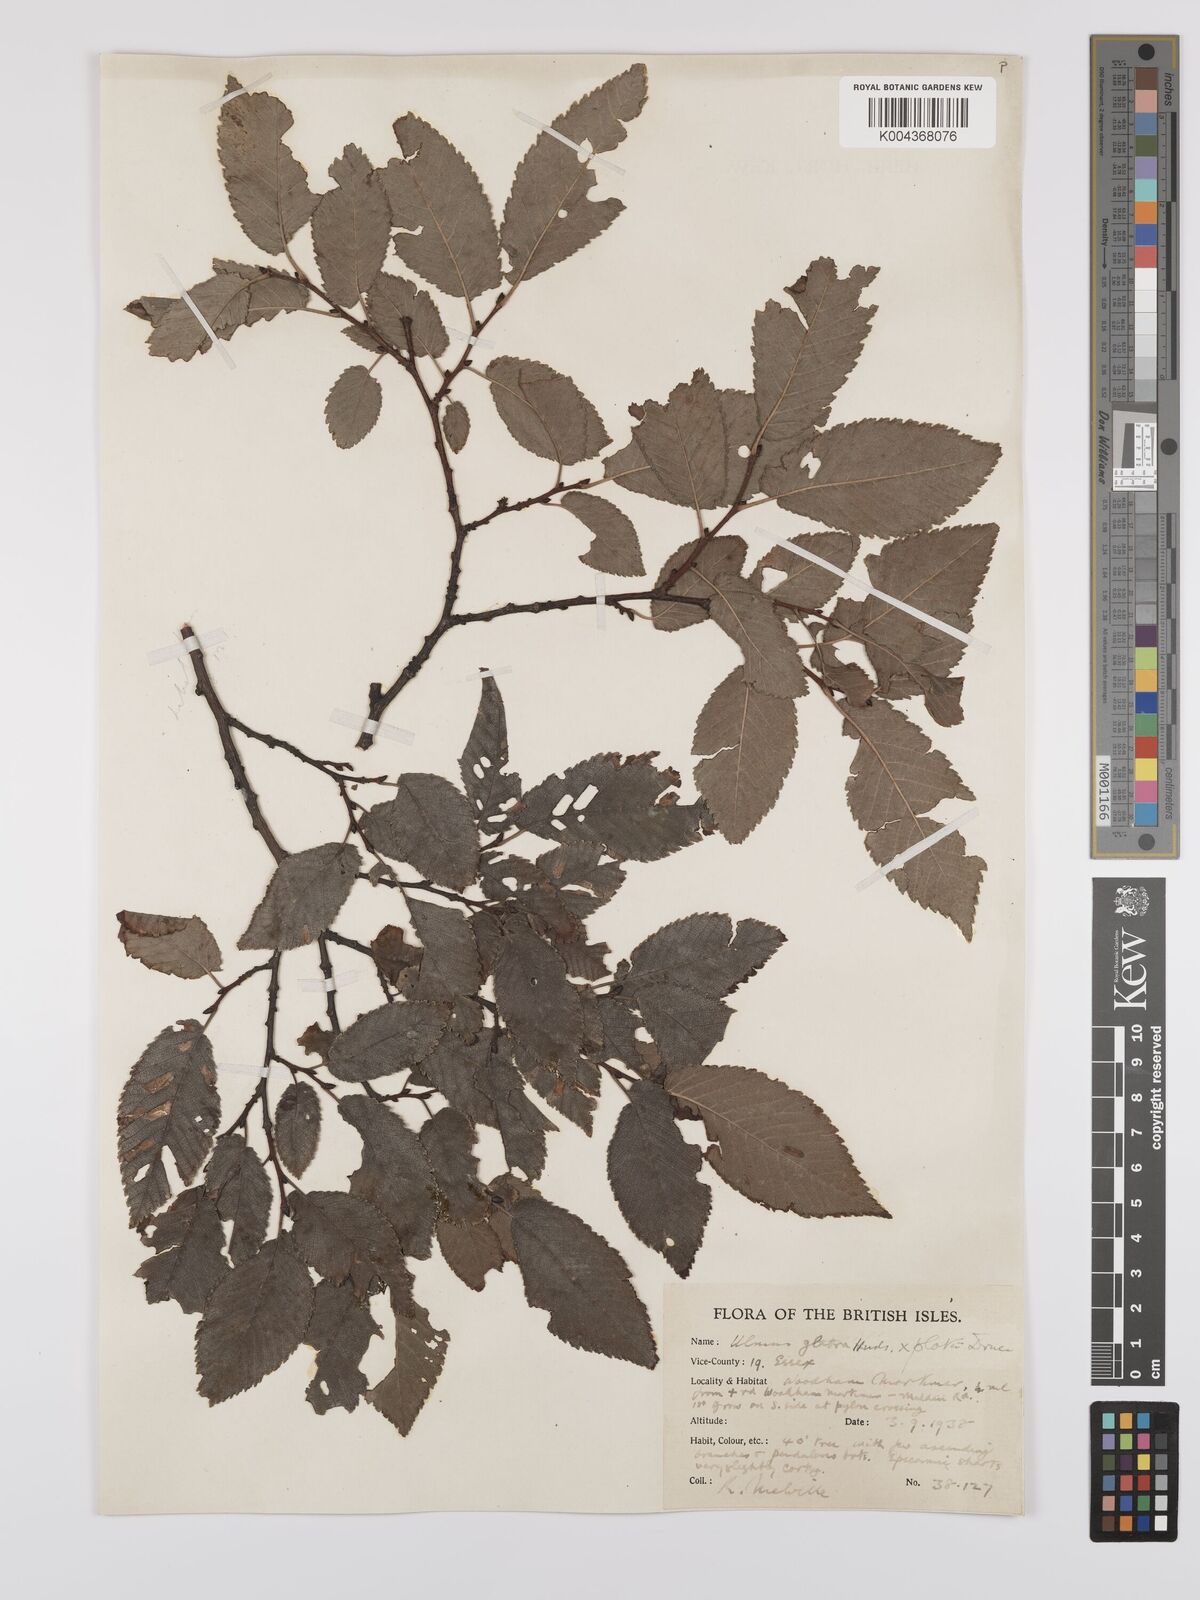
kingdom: Plantae
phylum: Tracheophyta
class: Magnoliopsida
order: Rosales
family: Ulmaceae
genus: Ulmus
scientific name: Ulmus
